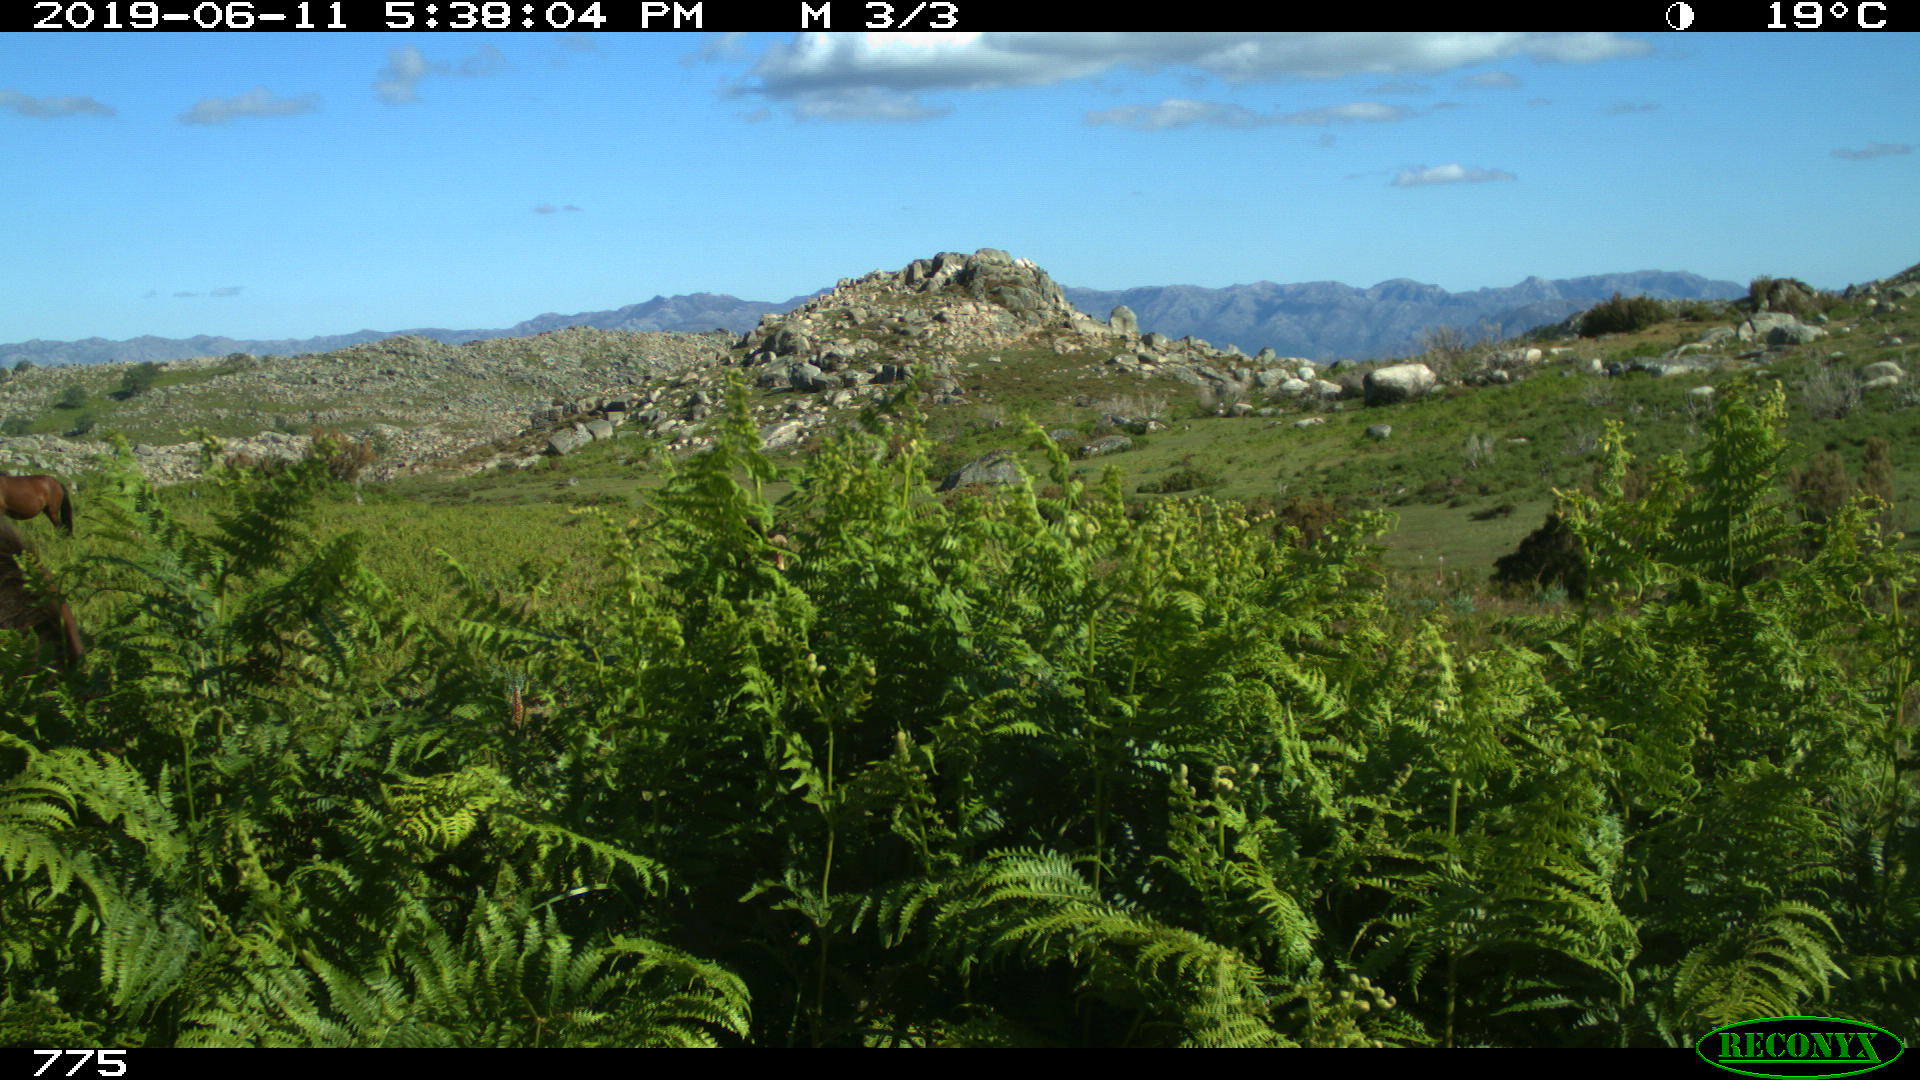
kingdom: Animalia
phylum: Chordata
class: Mammalia
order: Perissodactyla
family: Equidae
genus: Equus
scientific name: Equus caballus
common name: Horse
